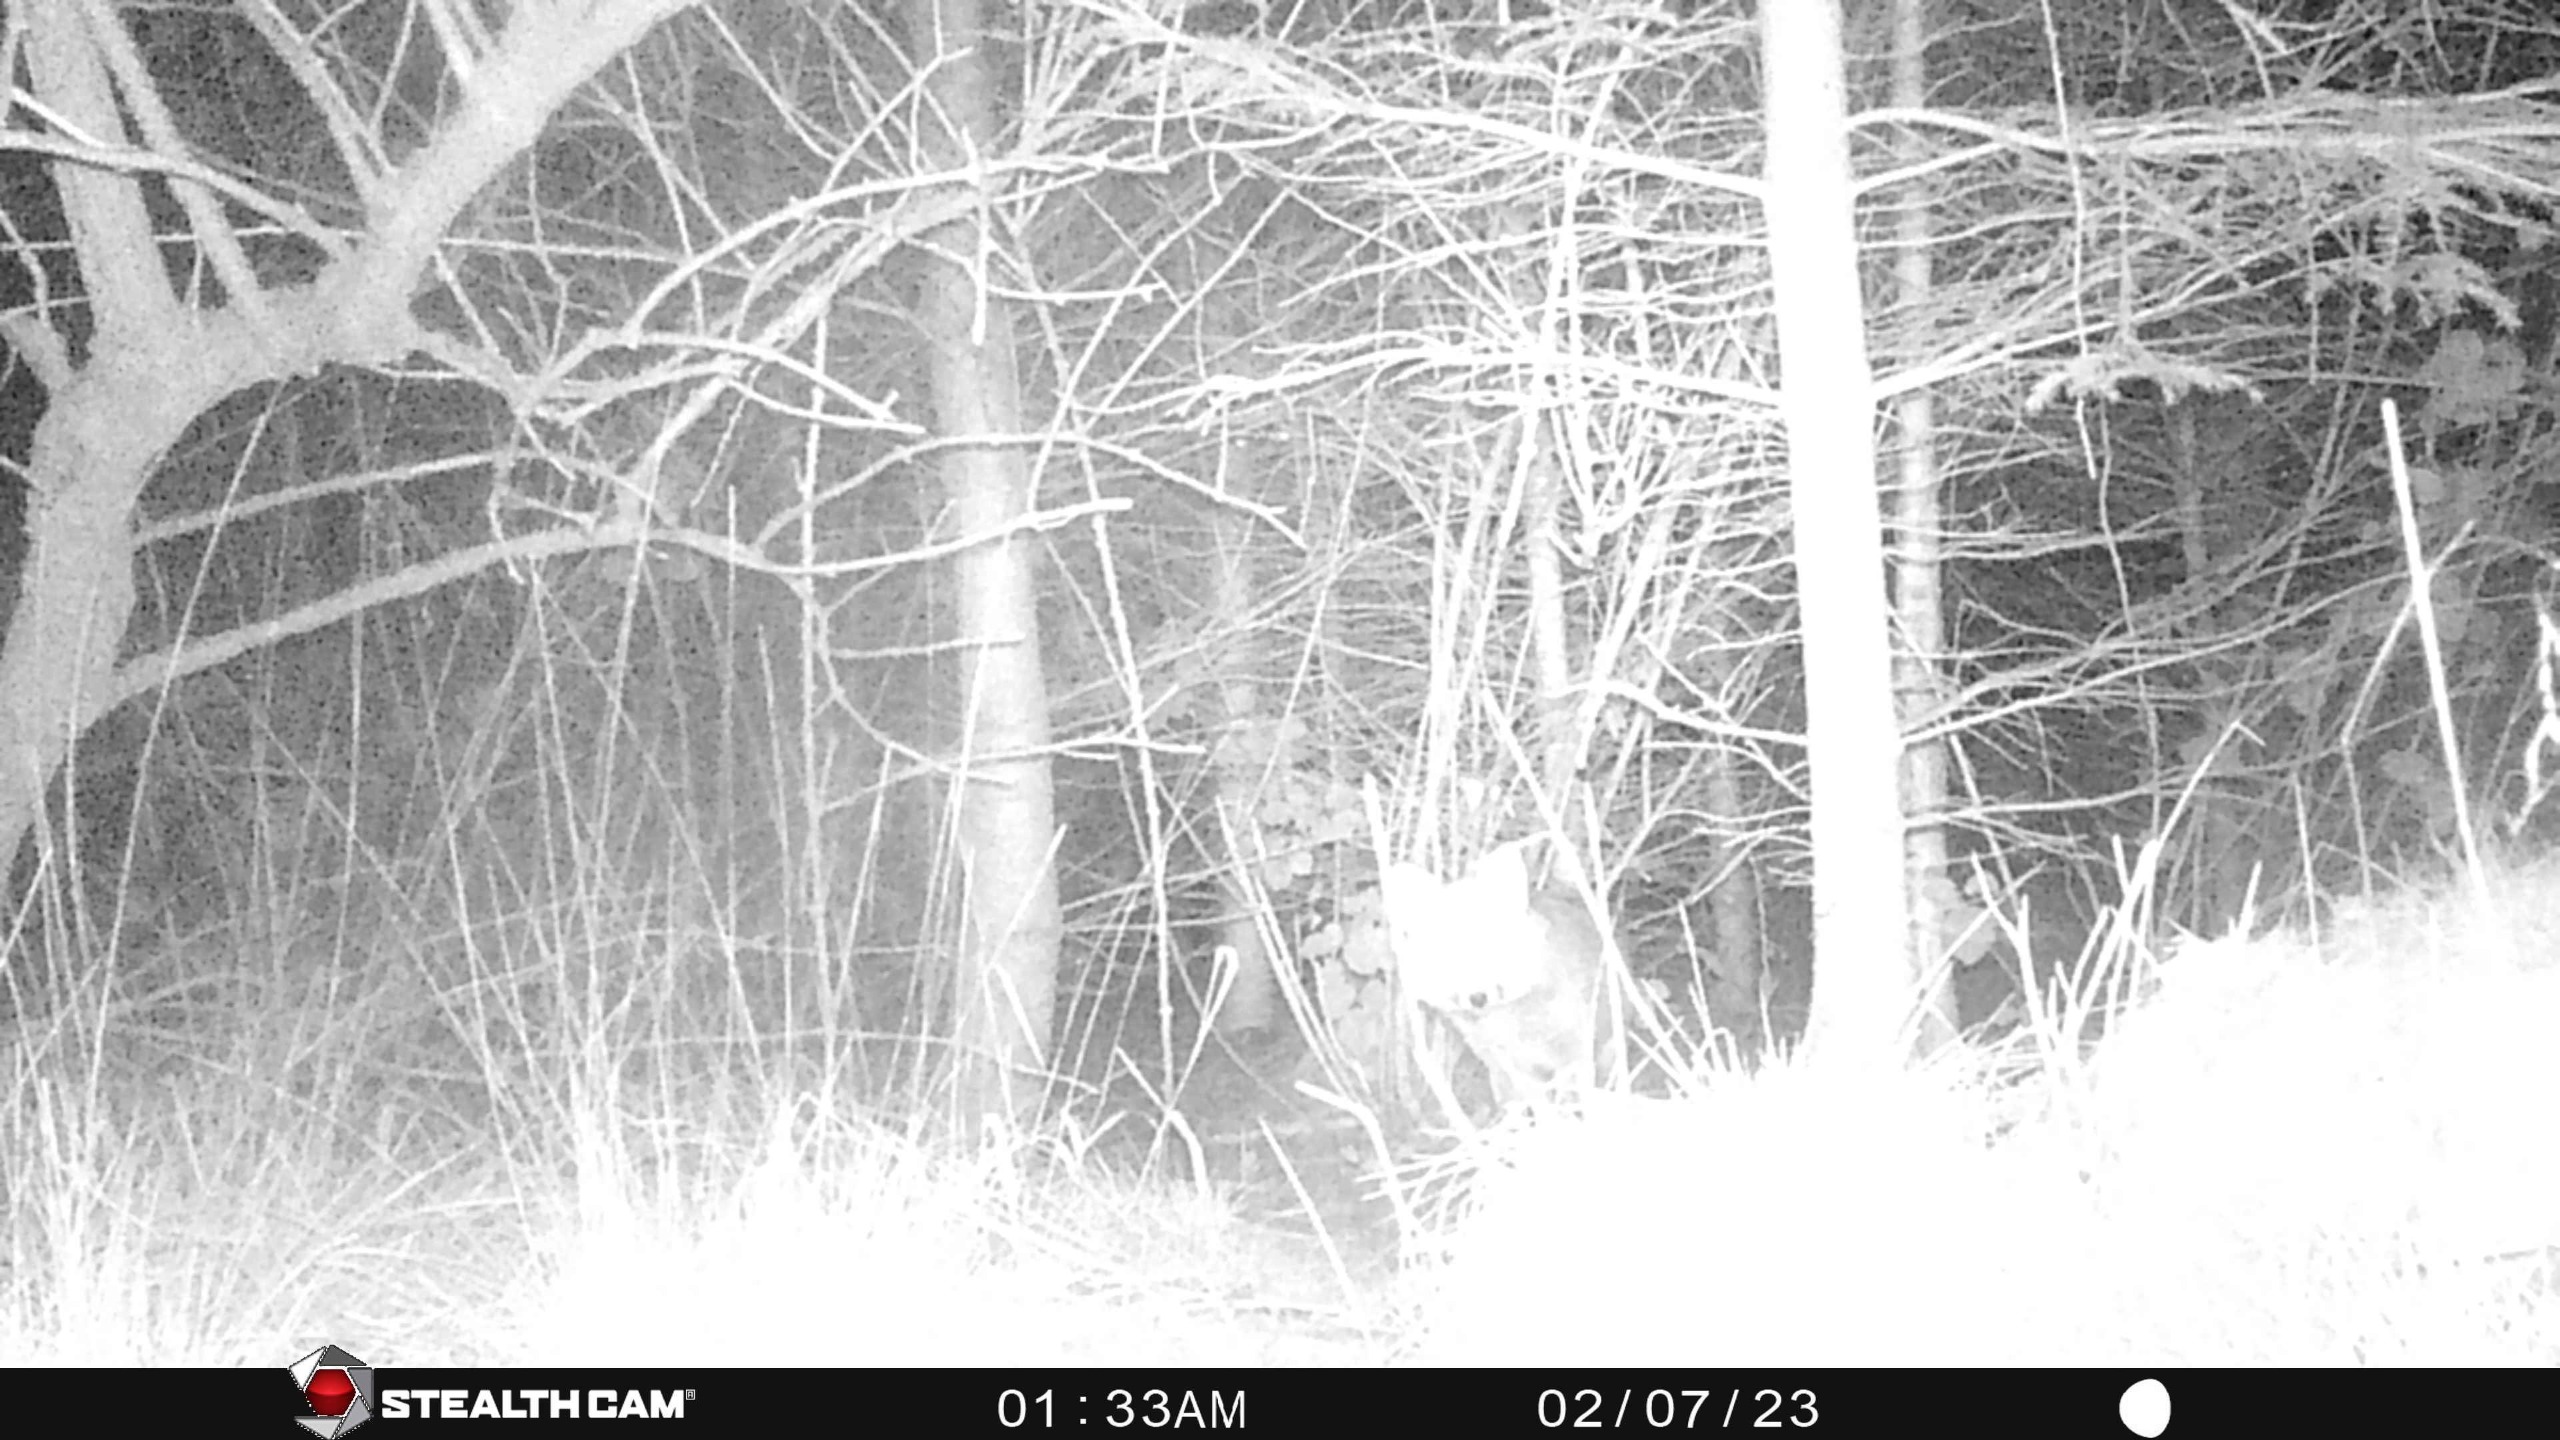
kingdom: Animalia
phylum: Chordata
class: Mammalia
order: Carnivora
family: Canidae
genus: Vulpes
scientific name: Vulpes vulpes
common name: Ræv
